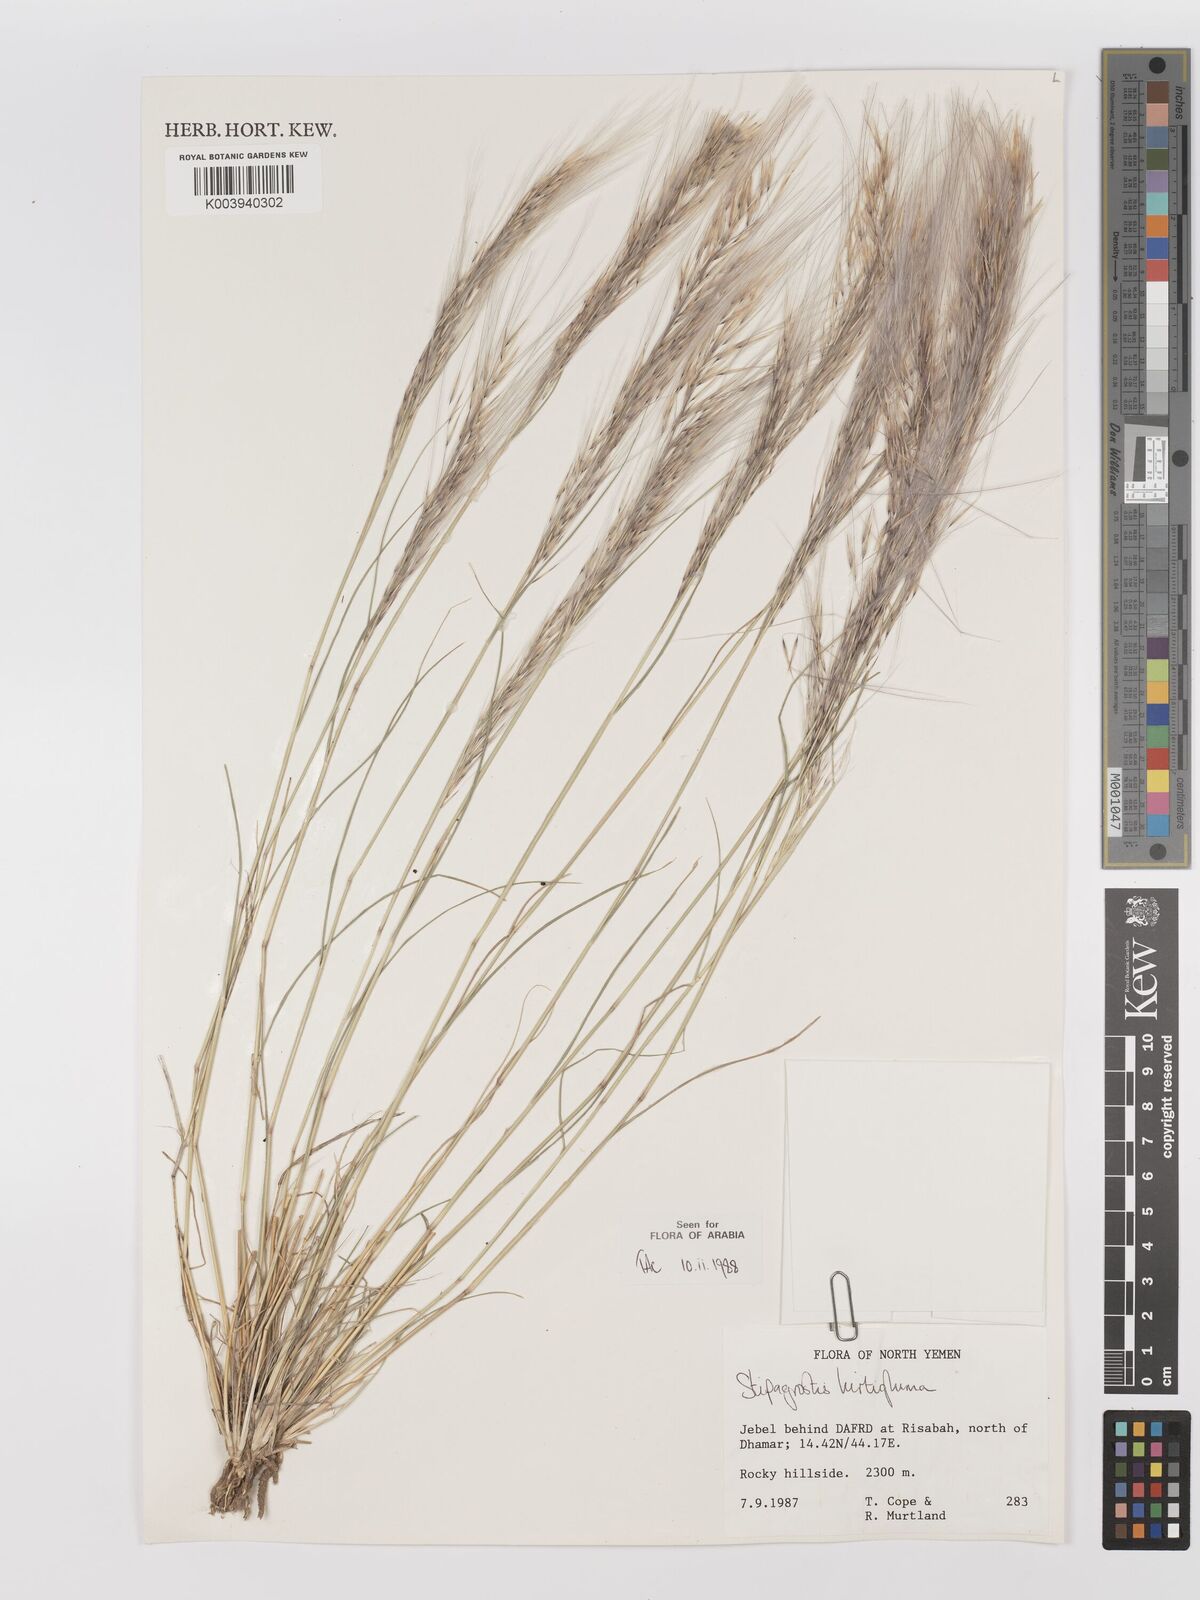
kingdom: Plantae
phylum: Tracheophyta
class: Liliopsida
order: Poales
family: Poaceae
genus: Stipagrostis
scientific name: Stipagrostis hirtigluma
